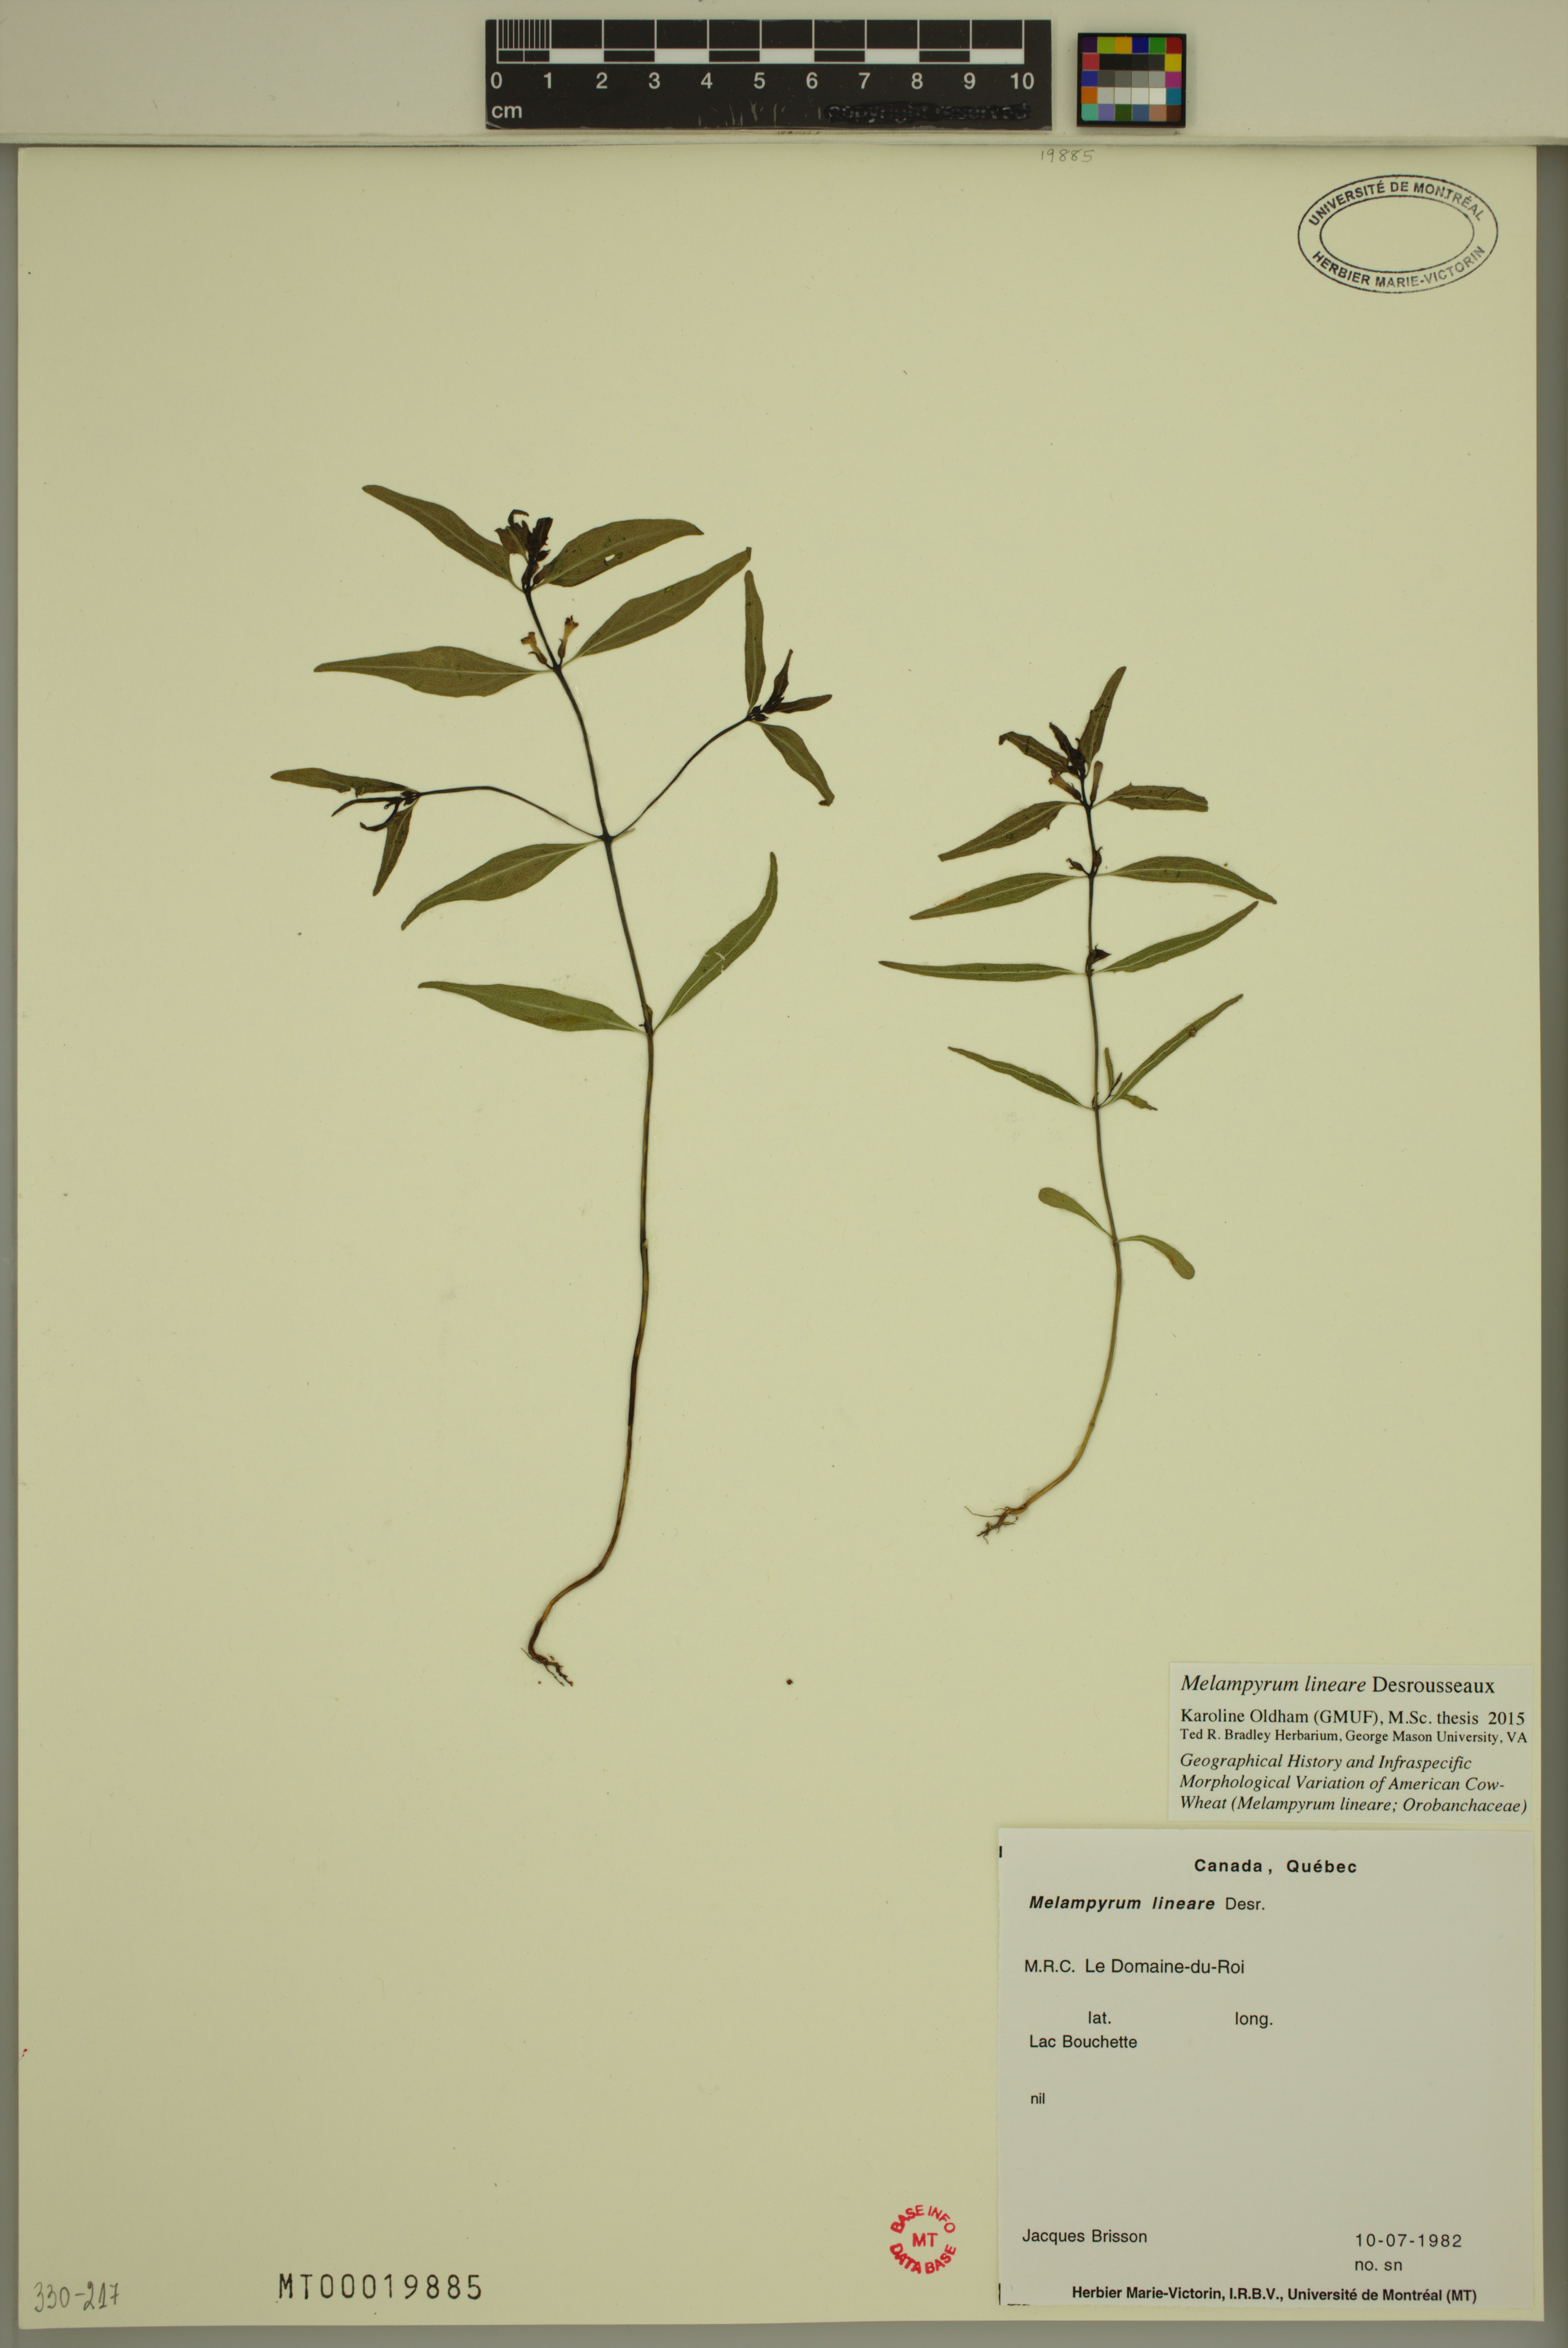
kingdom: Plantae
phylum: Tracheophyta
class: Magnoliopsida
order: Lamiales
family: Orobanchaceae
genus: Melampyrum
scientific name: Melampyrum lineare
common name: American cow-wheat
